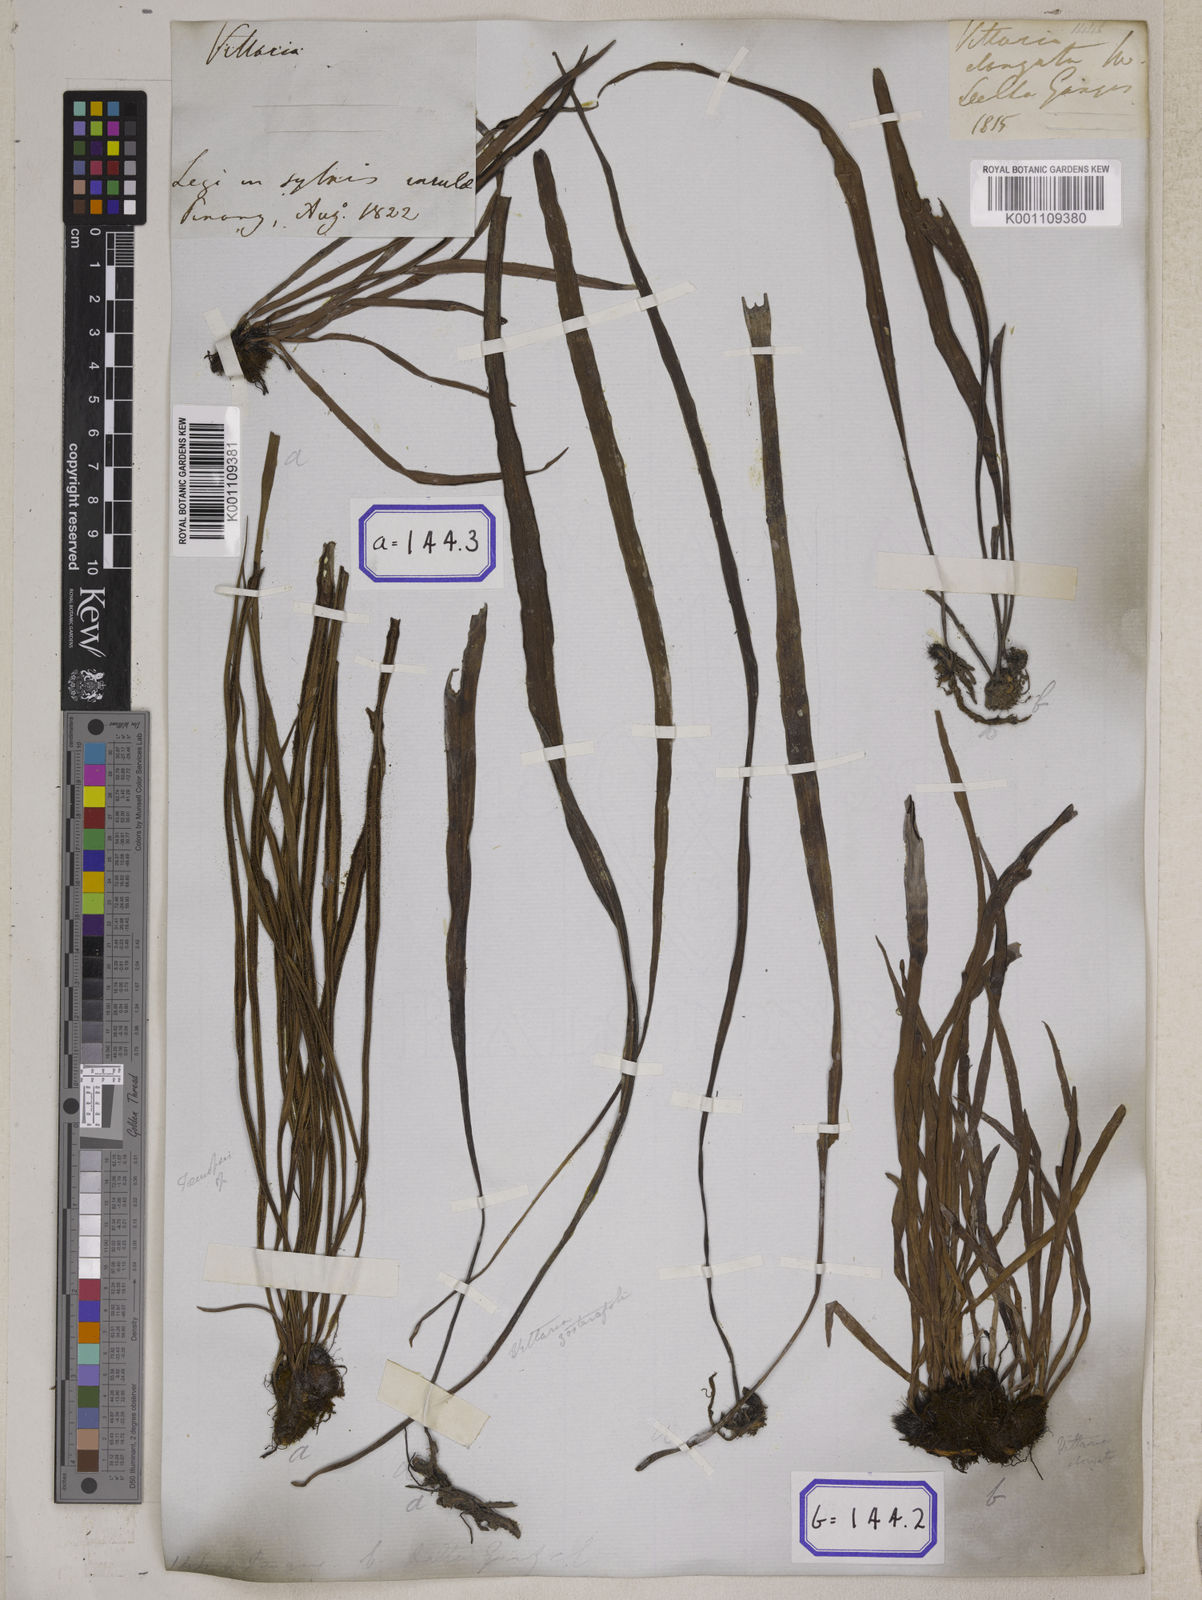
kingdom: Plantae
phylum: Tracheophyta
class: Polypodiopsida
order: Polypodiales
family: Pteridaceae
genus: Haplopteris
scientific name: Haplopteris elongata
